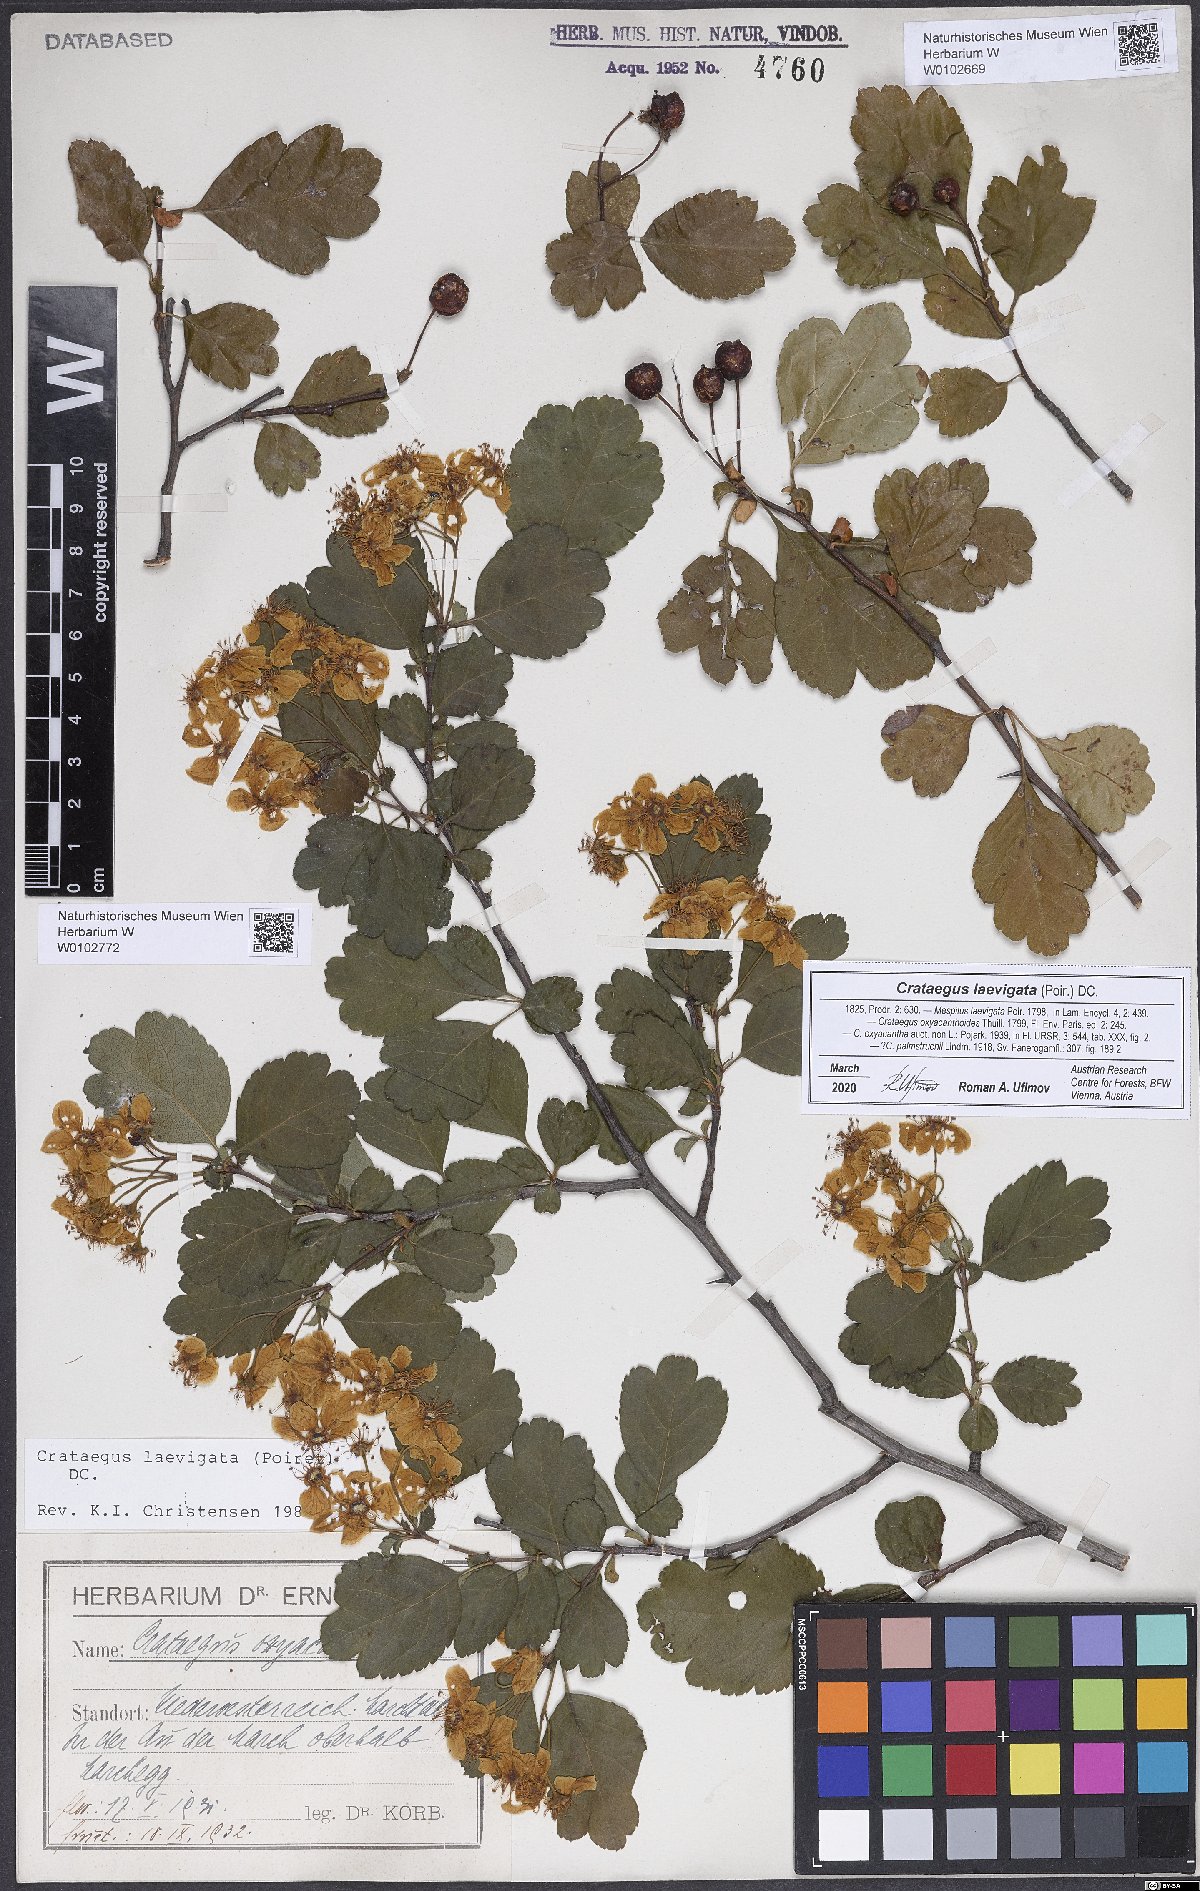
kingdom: Plantae
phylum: Tracheophyta
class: Magnoliopsida
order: Rosales
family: Rosaceae
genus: Crataegus
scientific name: Crataegus laevigata
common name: Midland hawthorn
